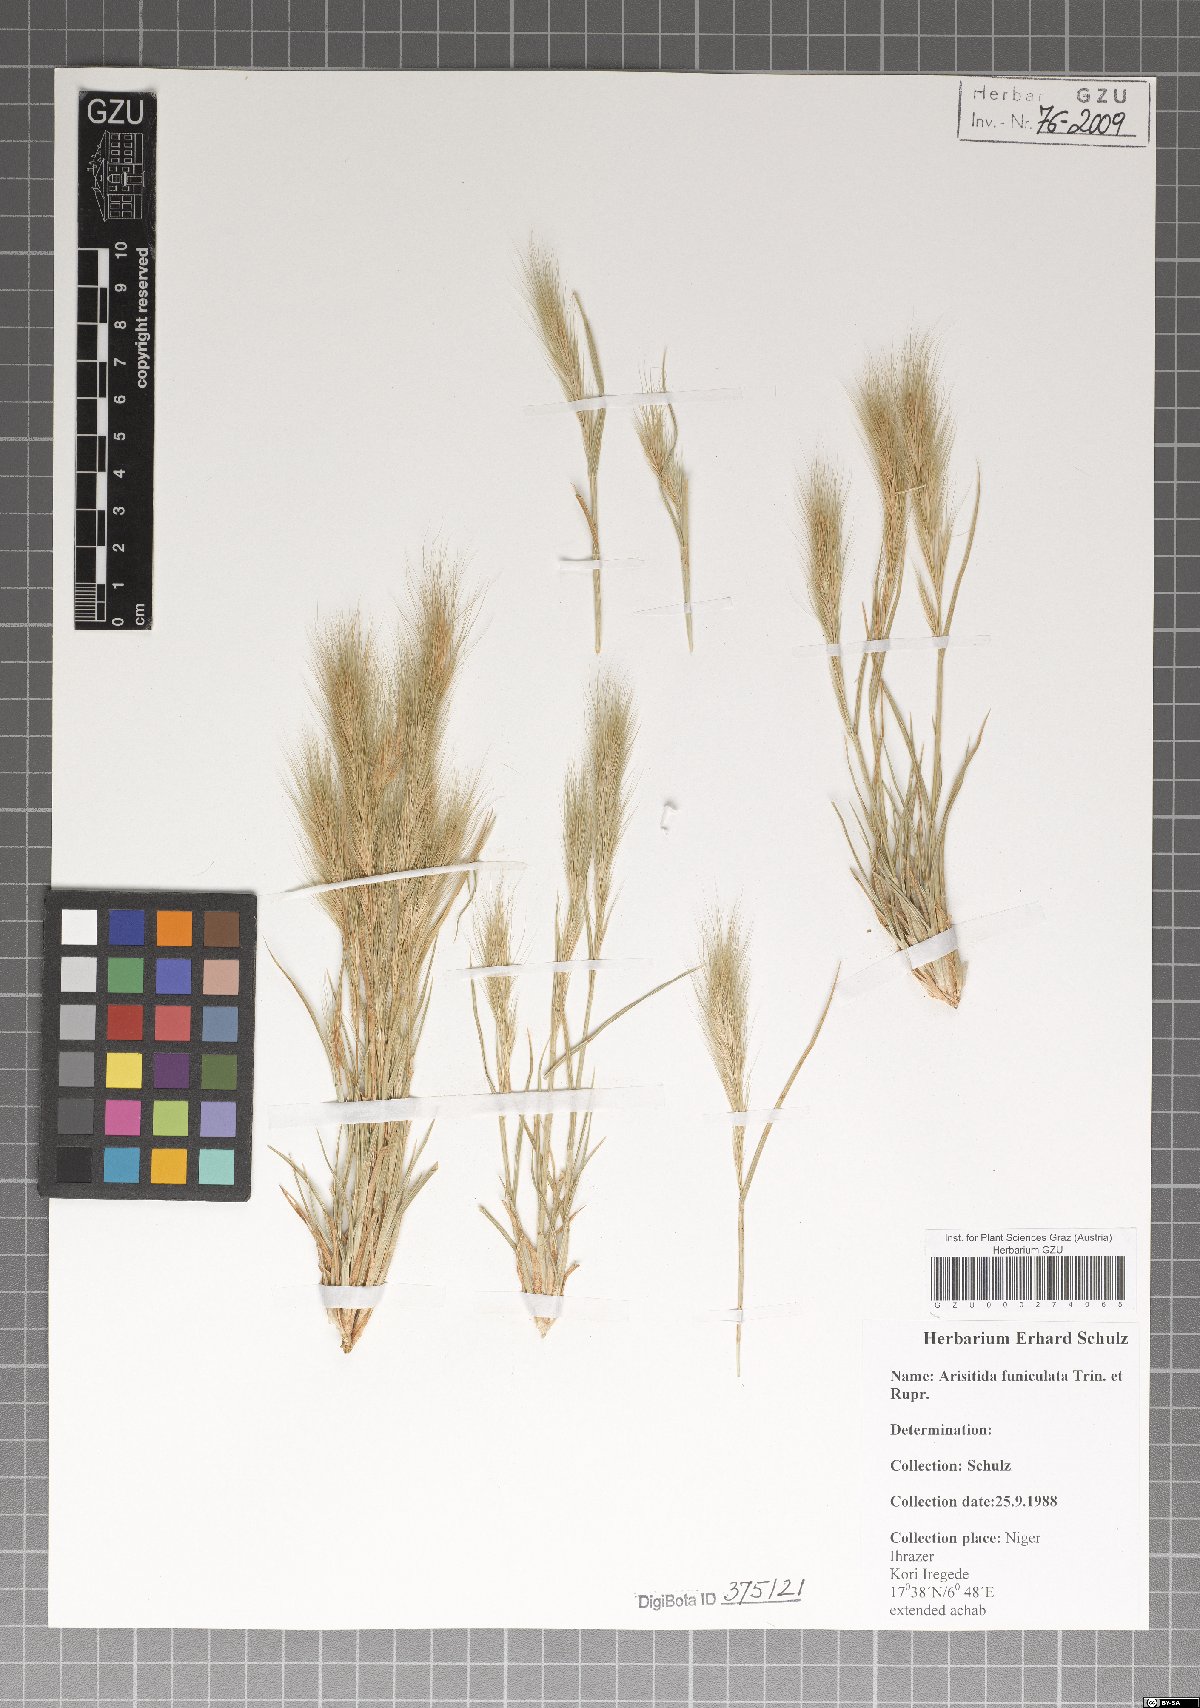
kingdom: Plantae
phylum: Tracheophyta
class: Liliopsida
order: Poales
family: Poaceae
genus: Aristida
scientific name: Aristida funiculata
